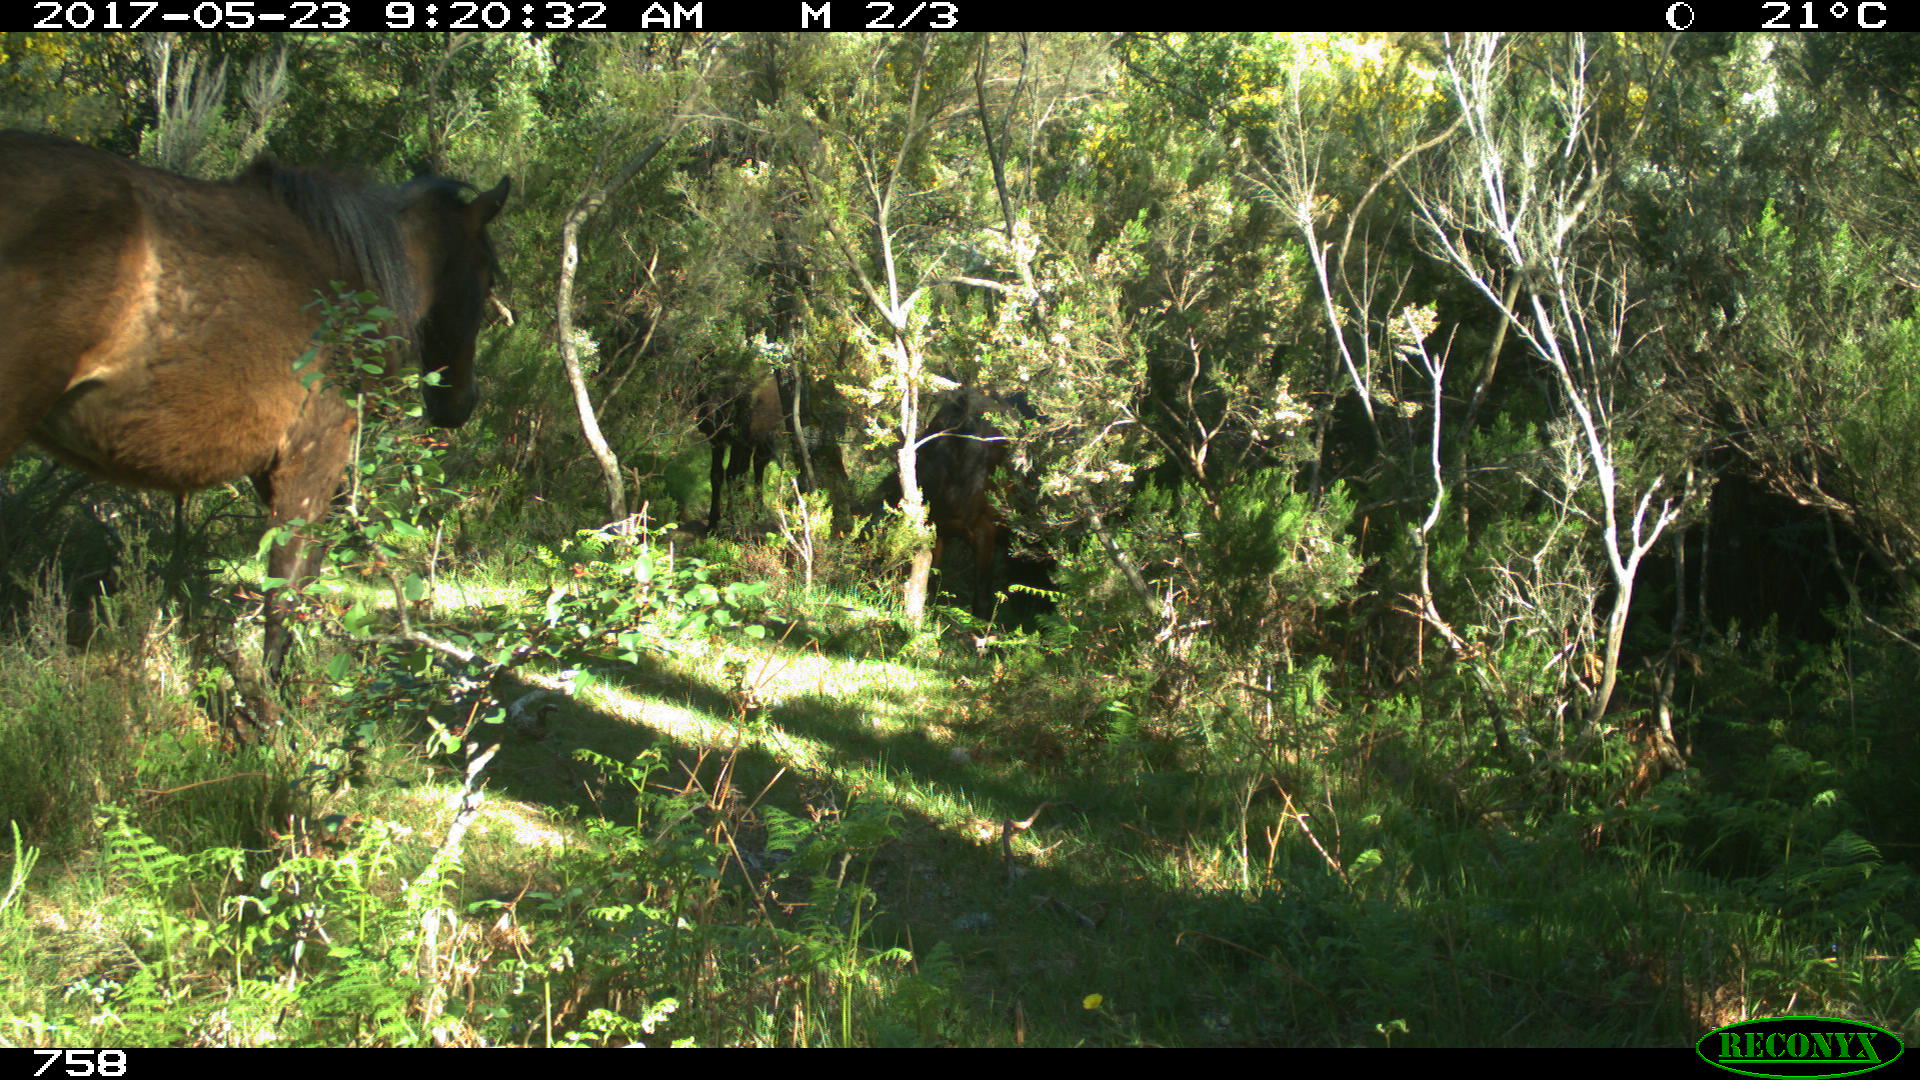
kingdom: Animalia
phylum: Chordata
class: Mammalia
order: Perissodactyla
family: Equidae
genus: Equus
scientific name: Equus caballus
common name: Horse
